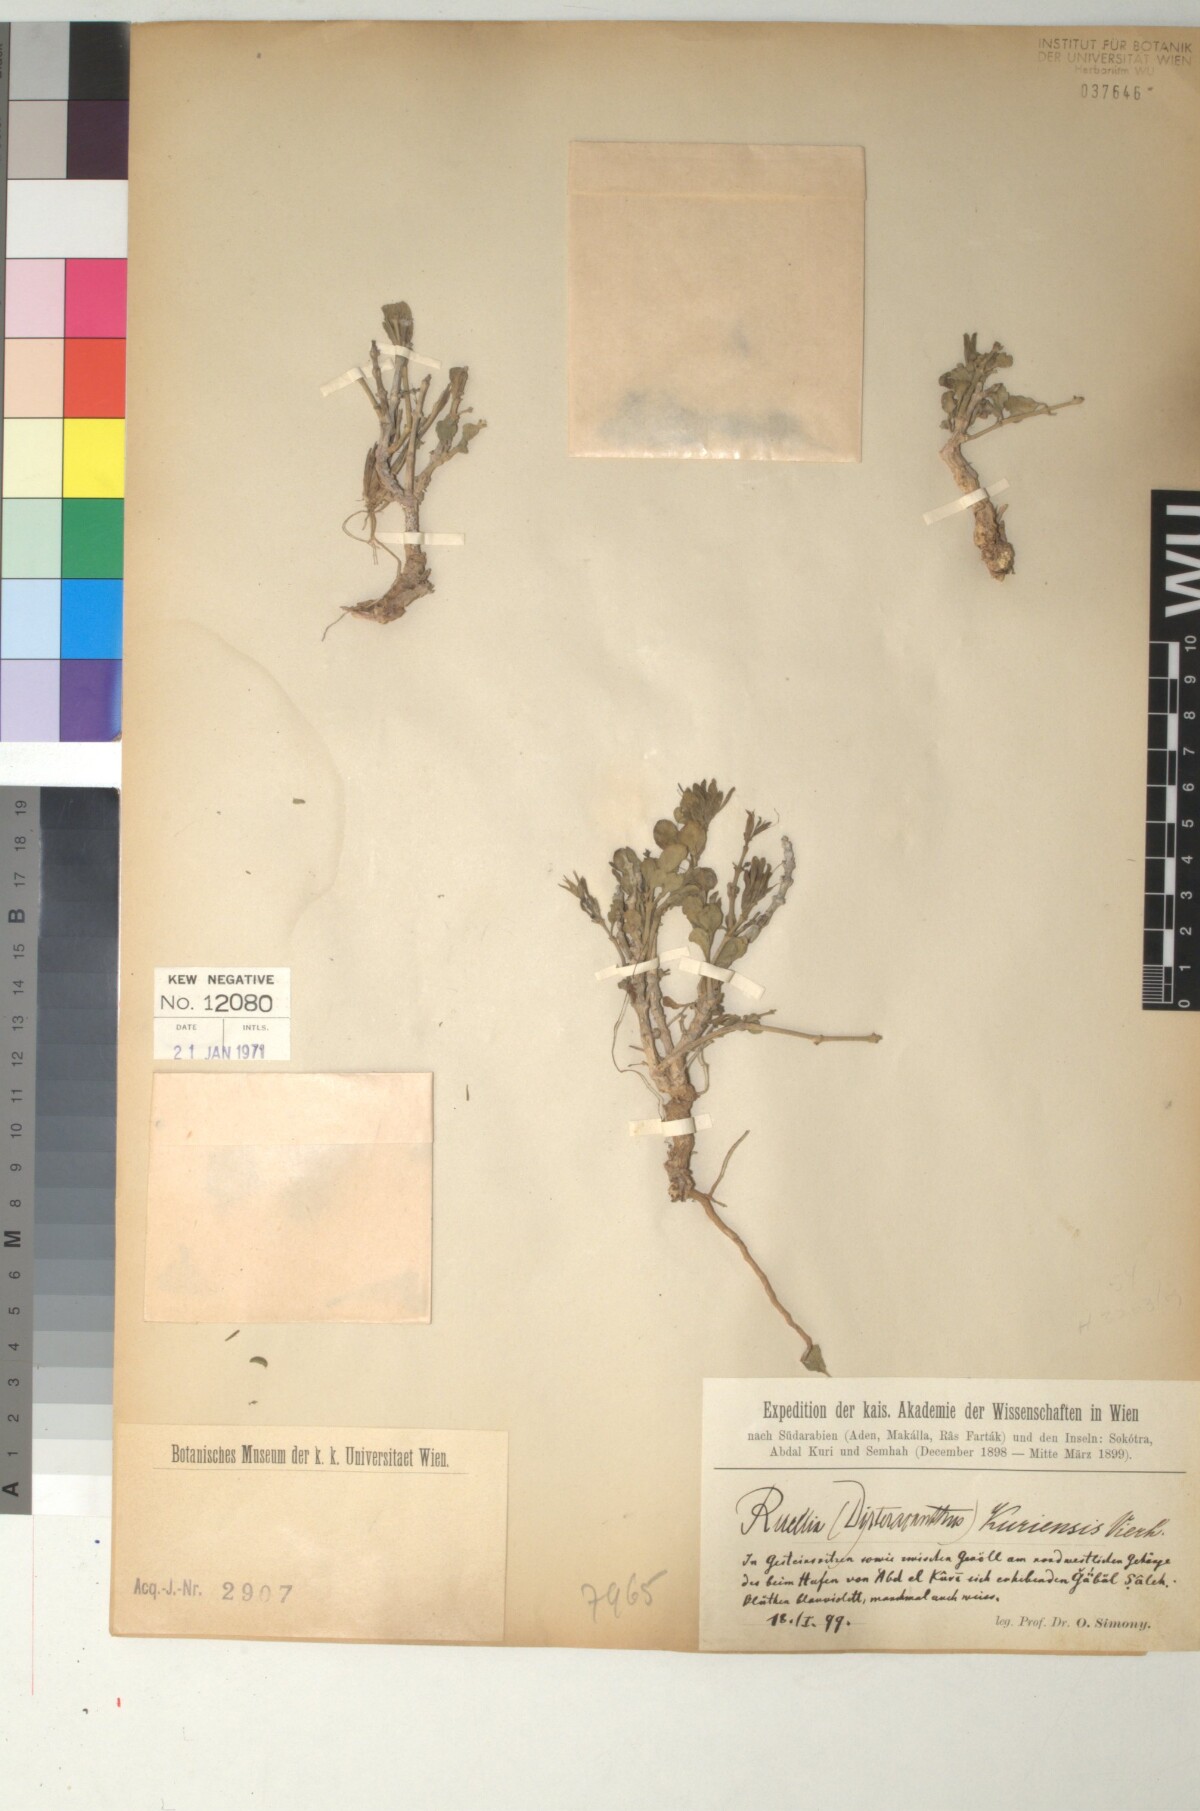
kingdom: Plantae
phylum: Tracheophyta
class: Magnoliopsida
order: Lamiales
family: Acanthaceae
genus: Ruellia
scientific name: Ruellia kuriensis
